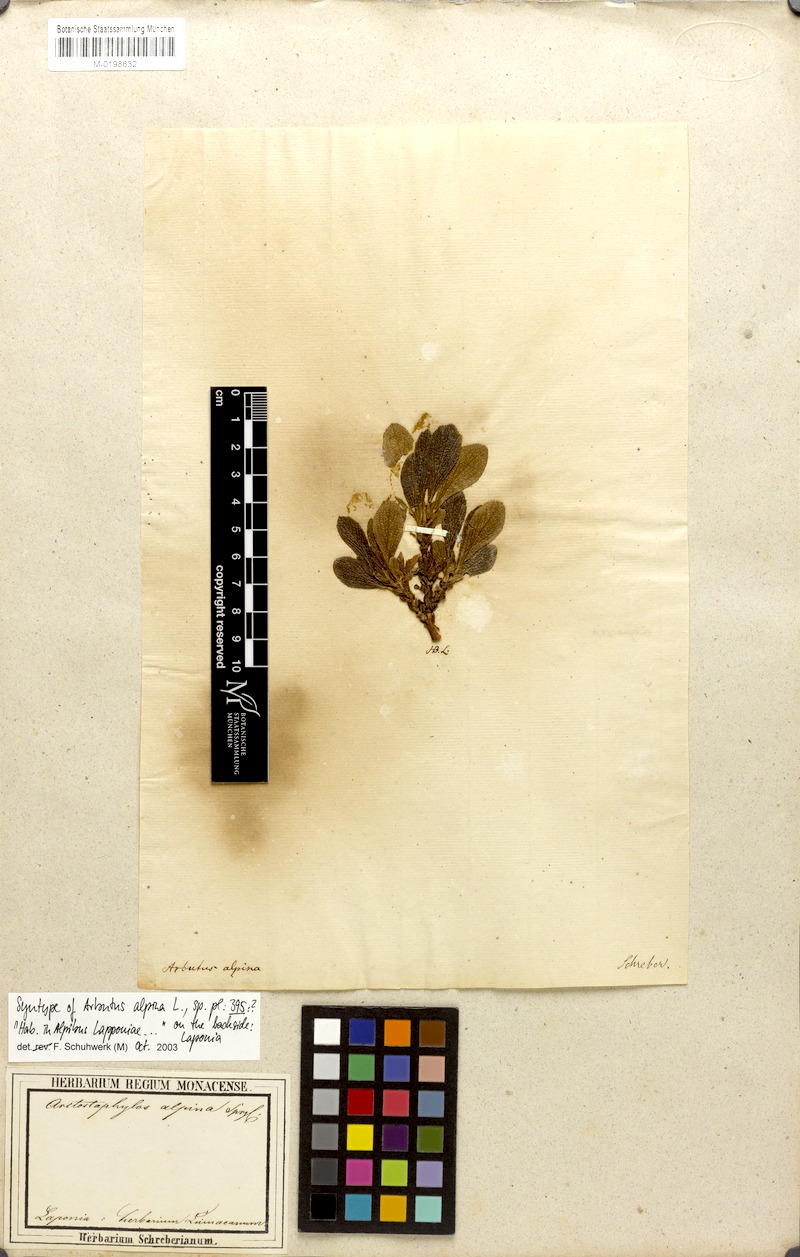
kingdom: Plantae
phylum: Tracheophyta
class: Magnoliopsida
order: Ericales
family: Ericaceae
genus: Arctostaphylos
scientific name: Arctostaphylos alpinus
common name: Alpine bearberry
